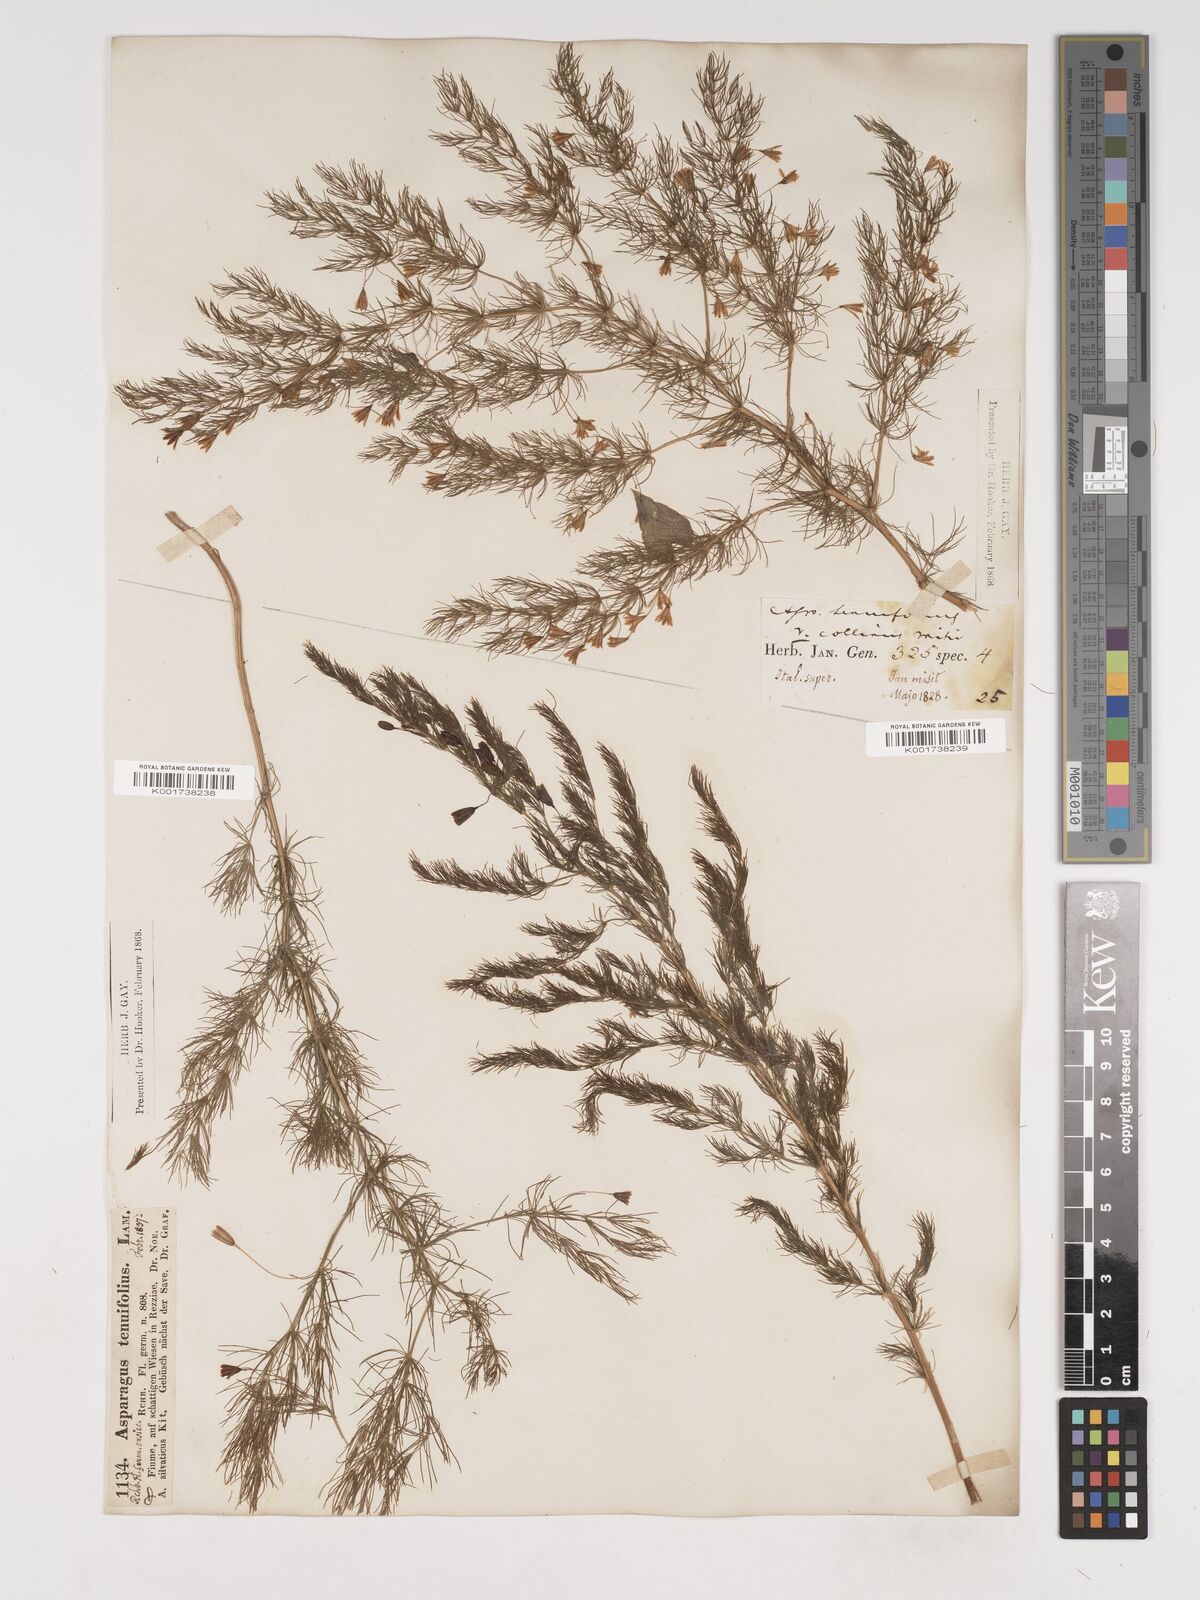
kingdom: Plantae
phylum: Tracheophyta
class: Liliopsida
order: Asparagales
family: Asparagaceae
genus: Asparagus
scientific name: Asparagus tenuifolius
